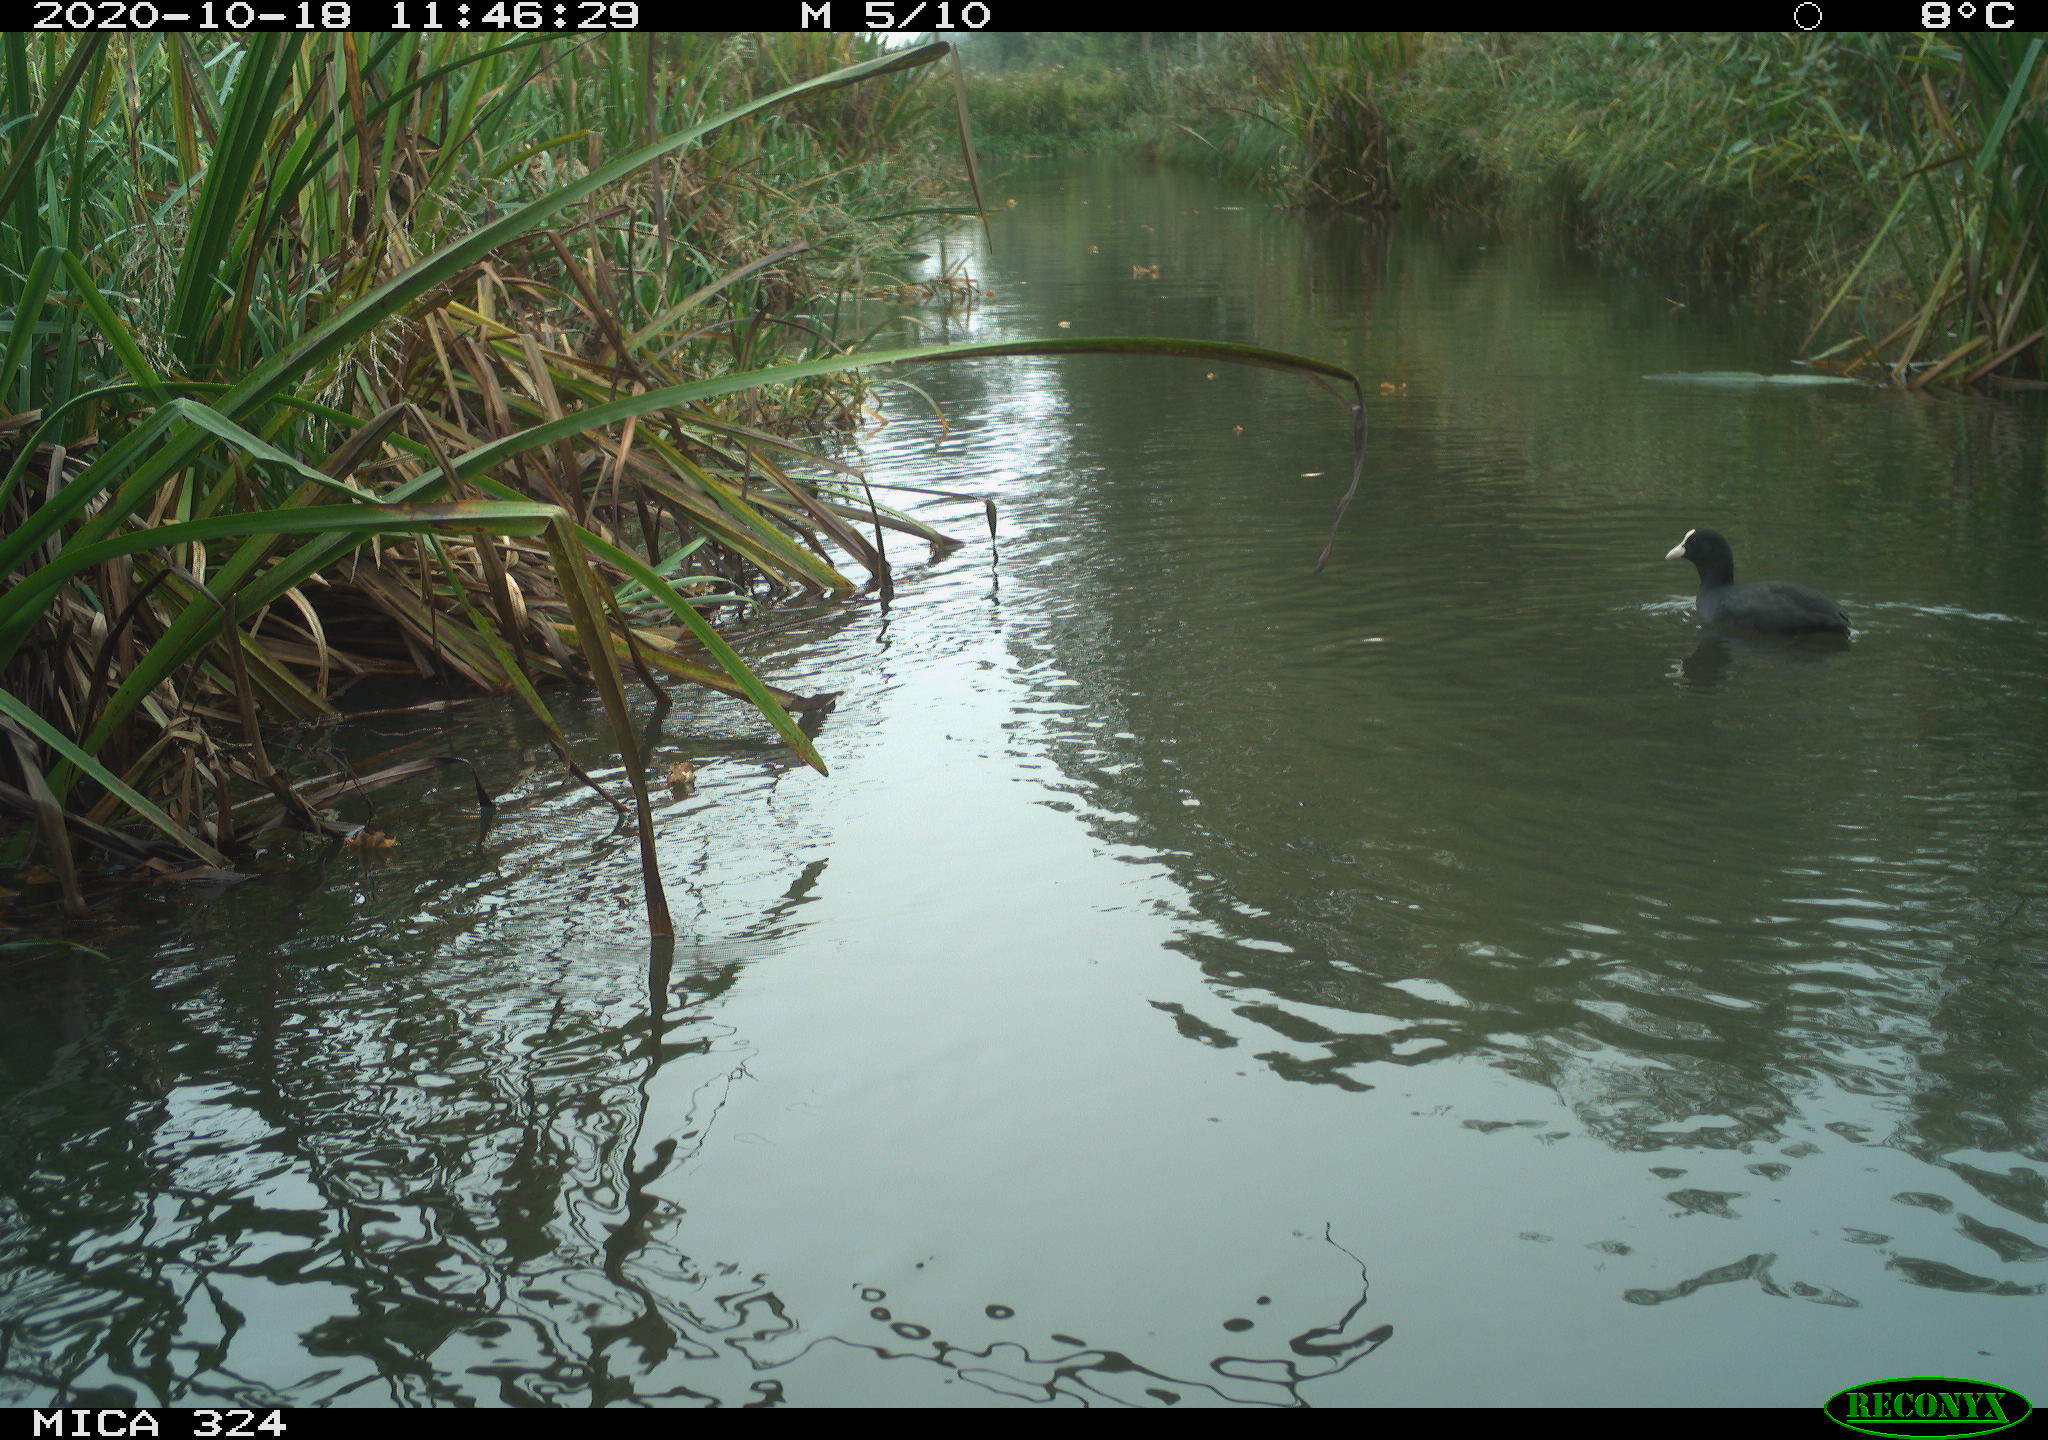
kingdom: Animalia
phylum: Chordata
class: Aves
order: Gruiformes
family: Rallidae
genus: Fulica
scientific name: Fulica atra
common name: Eurasian coot
